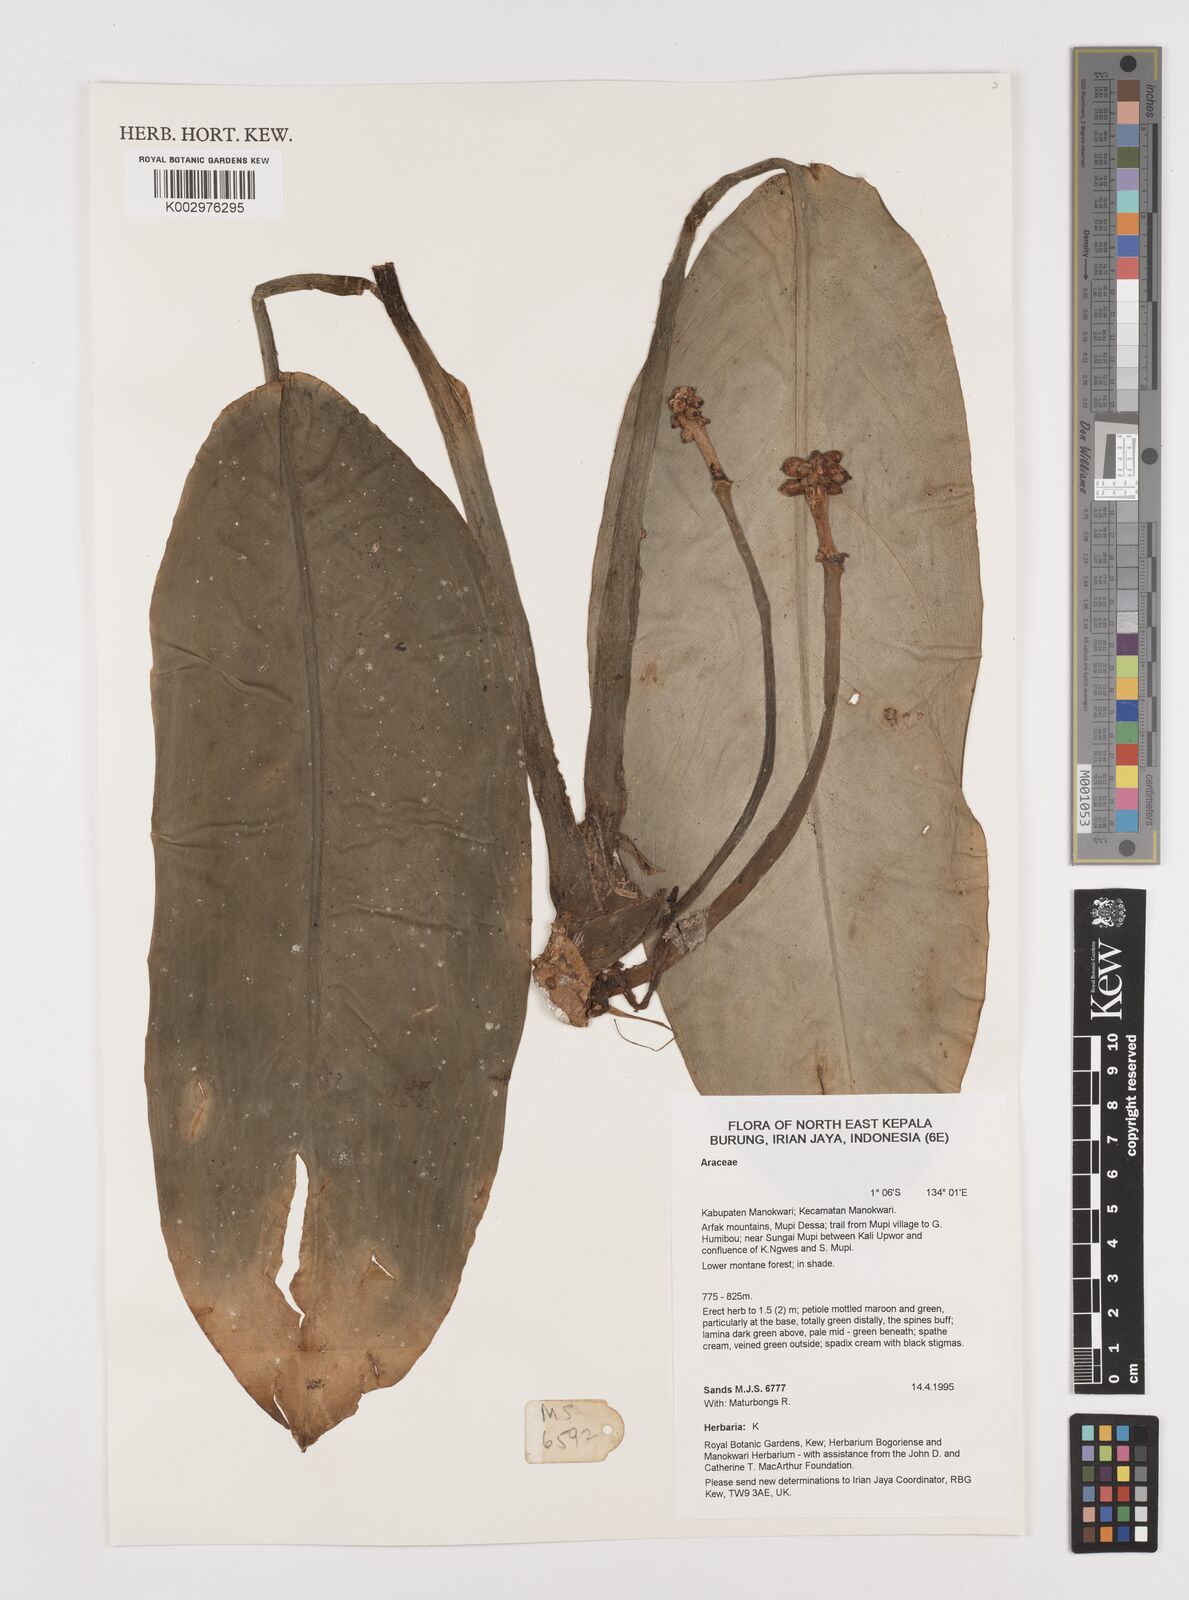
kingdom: Plantae
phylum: Tracheophyta
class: Liliopsida
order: Alismatales
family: Araceae
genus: Aglaonema
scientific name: Aglaonema marantifolium
